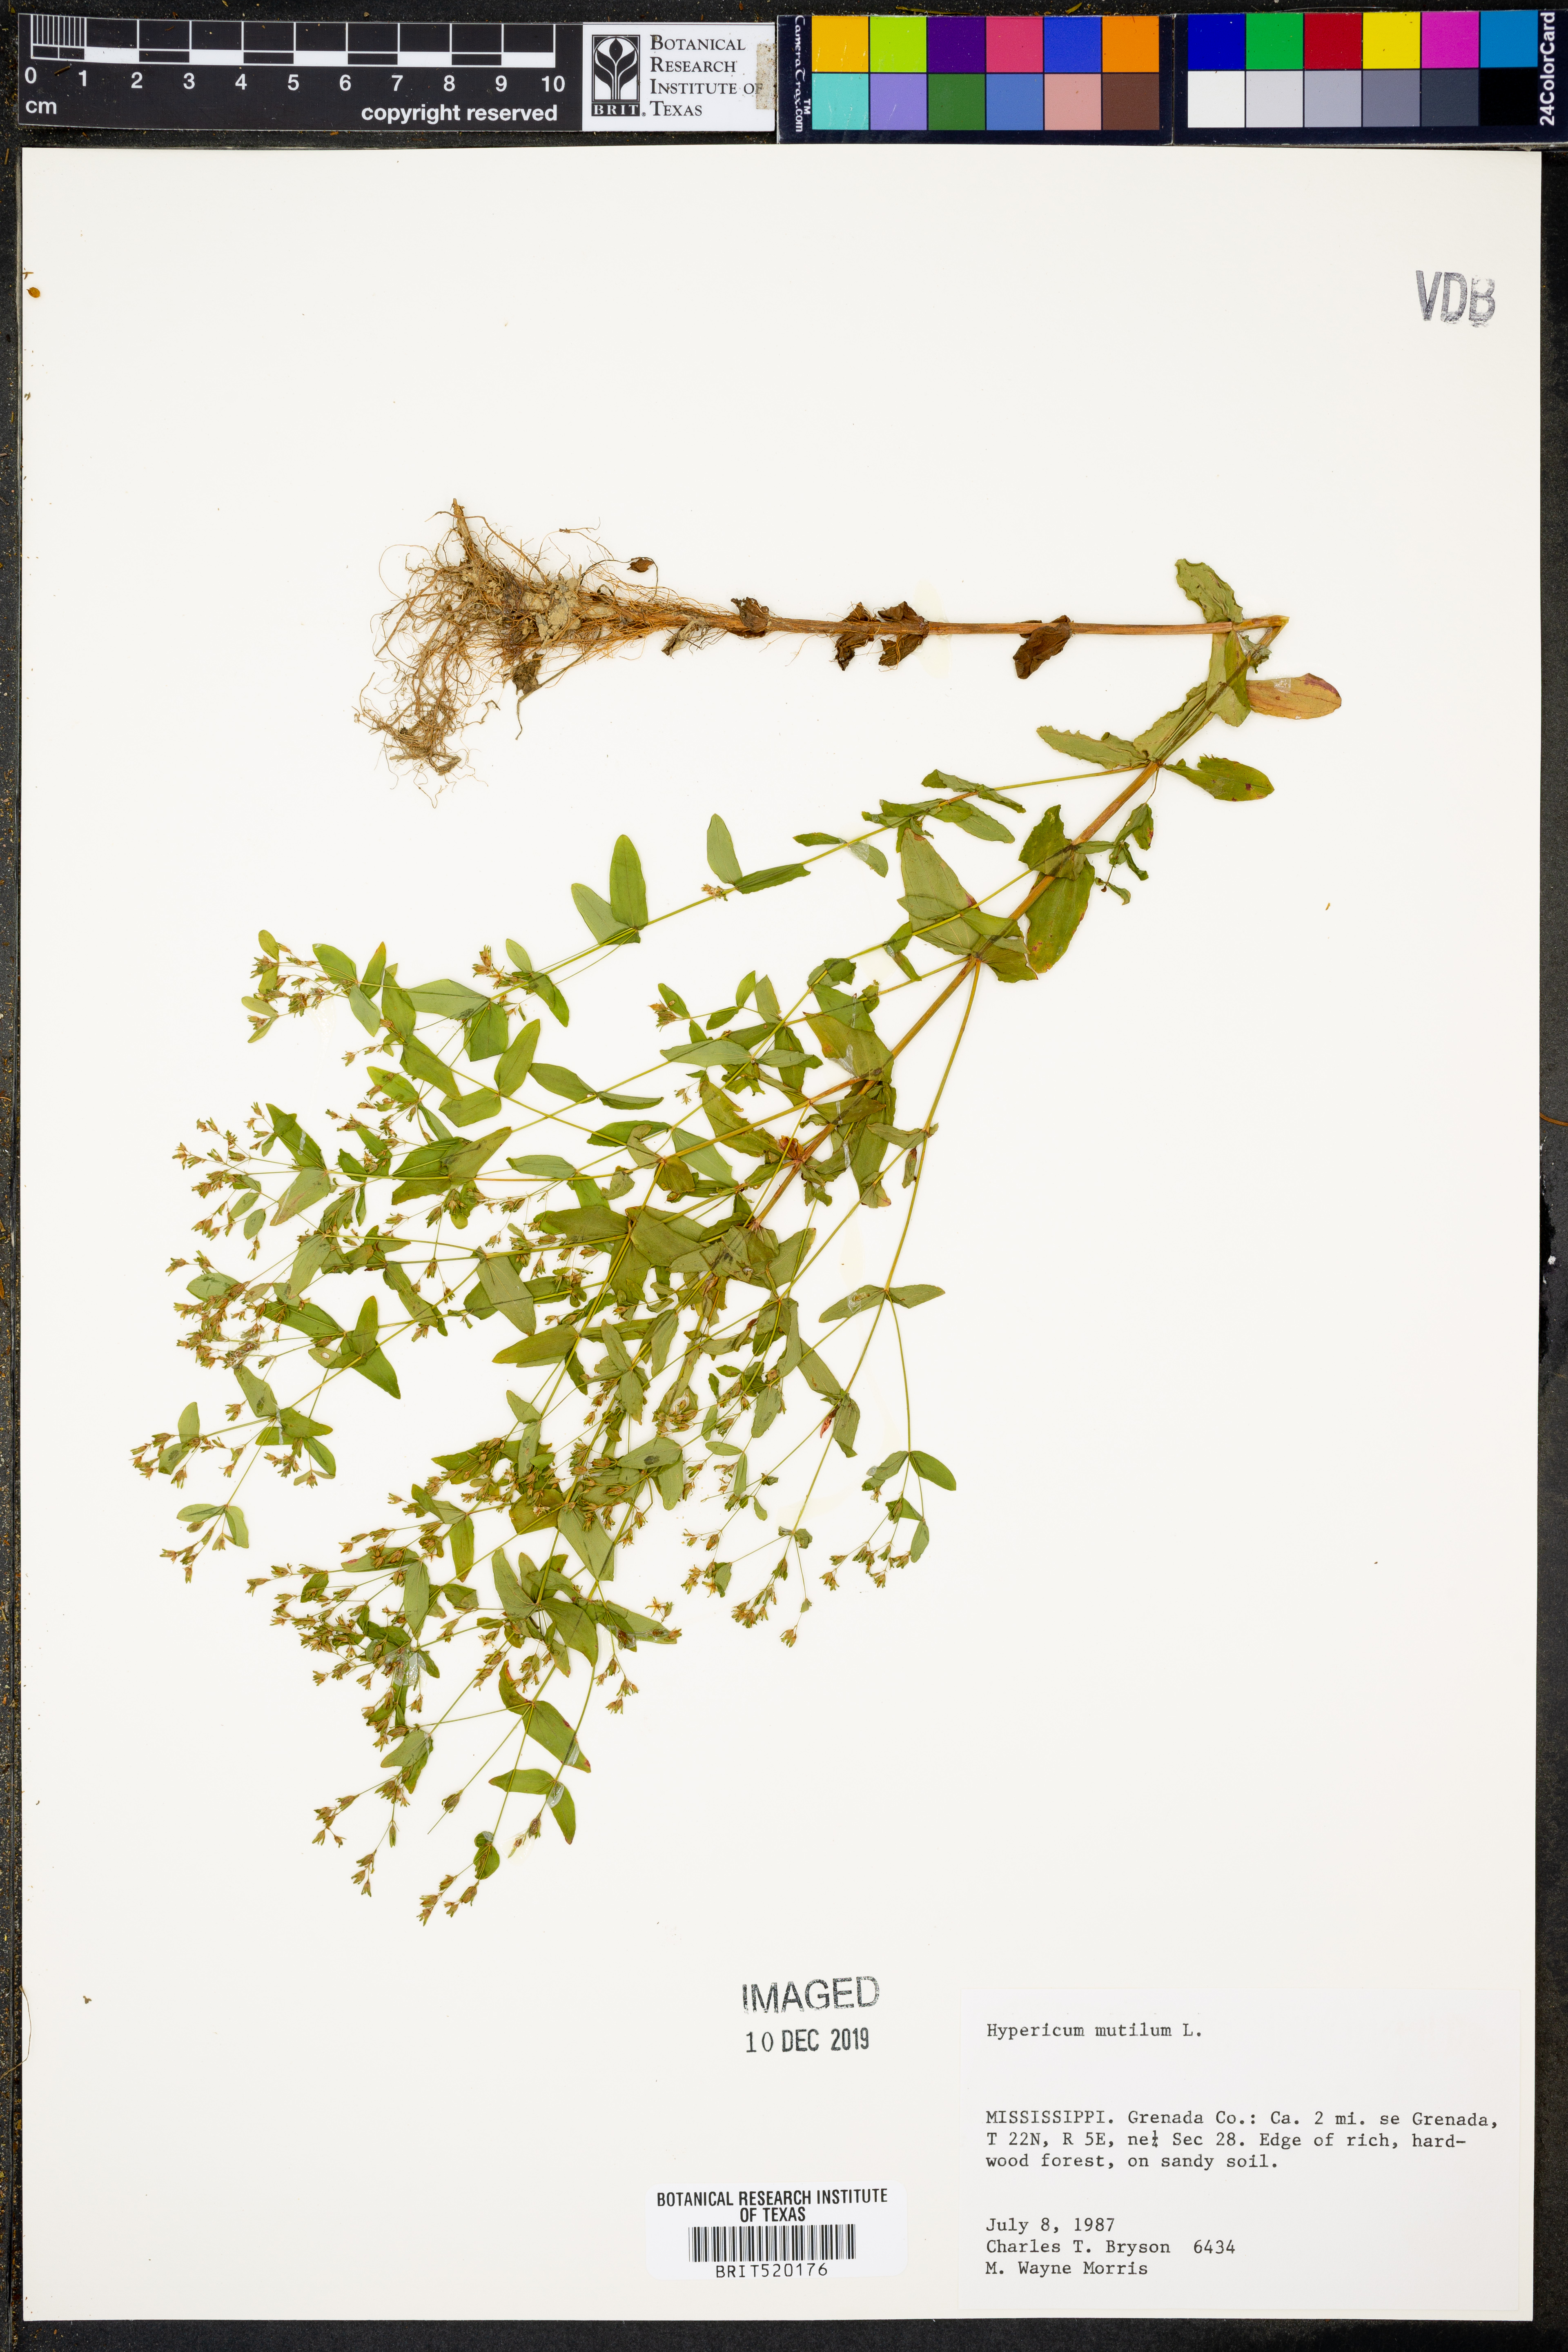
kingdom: Plantae
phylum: Tracheophyta
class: Magnoliopsida
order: Malpighiales
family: Hypericaceae
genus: Hypericum
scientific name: Hypericum mutilum
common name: Dwarf st. john's-wort
